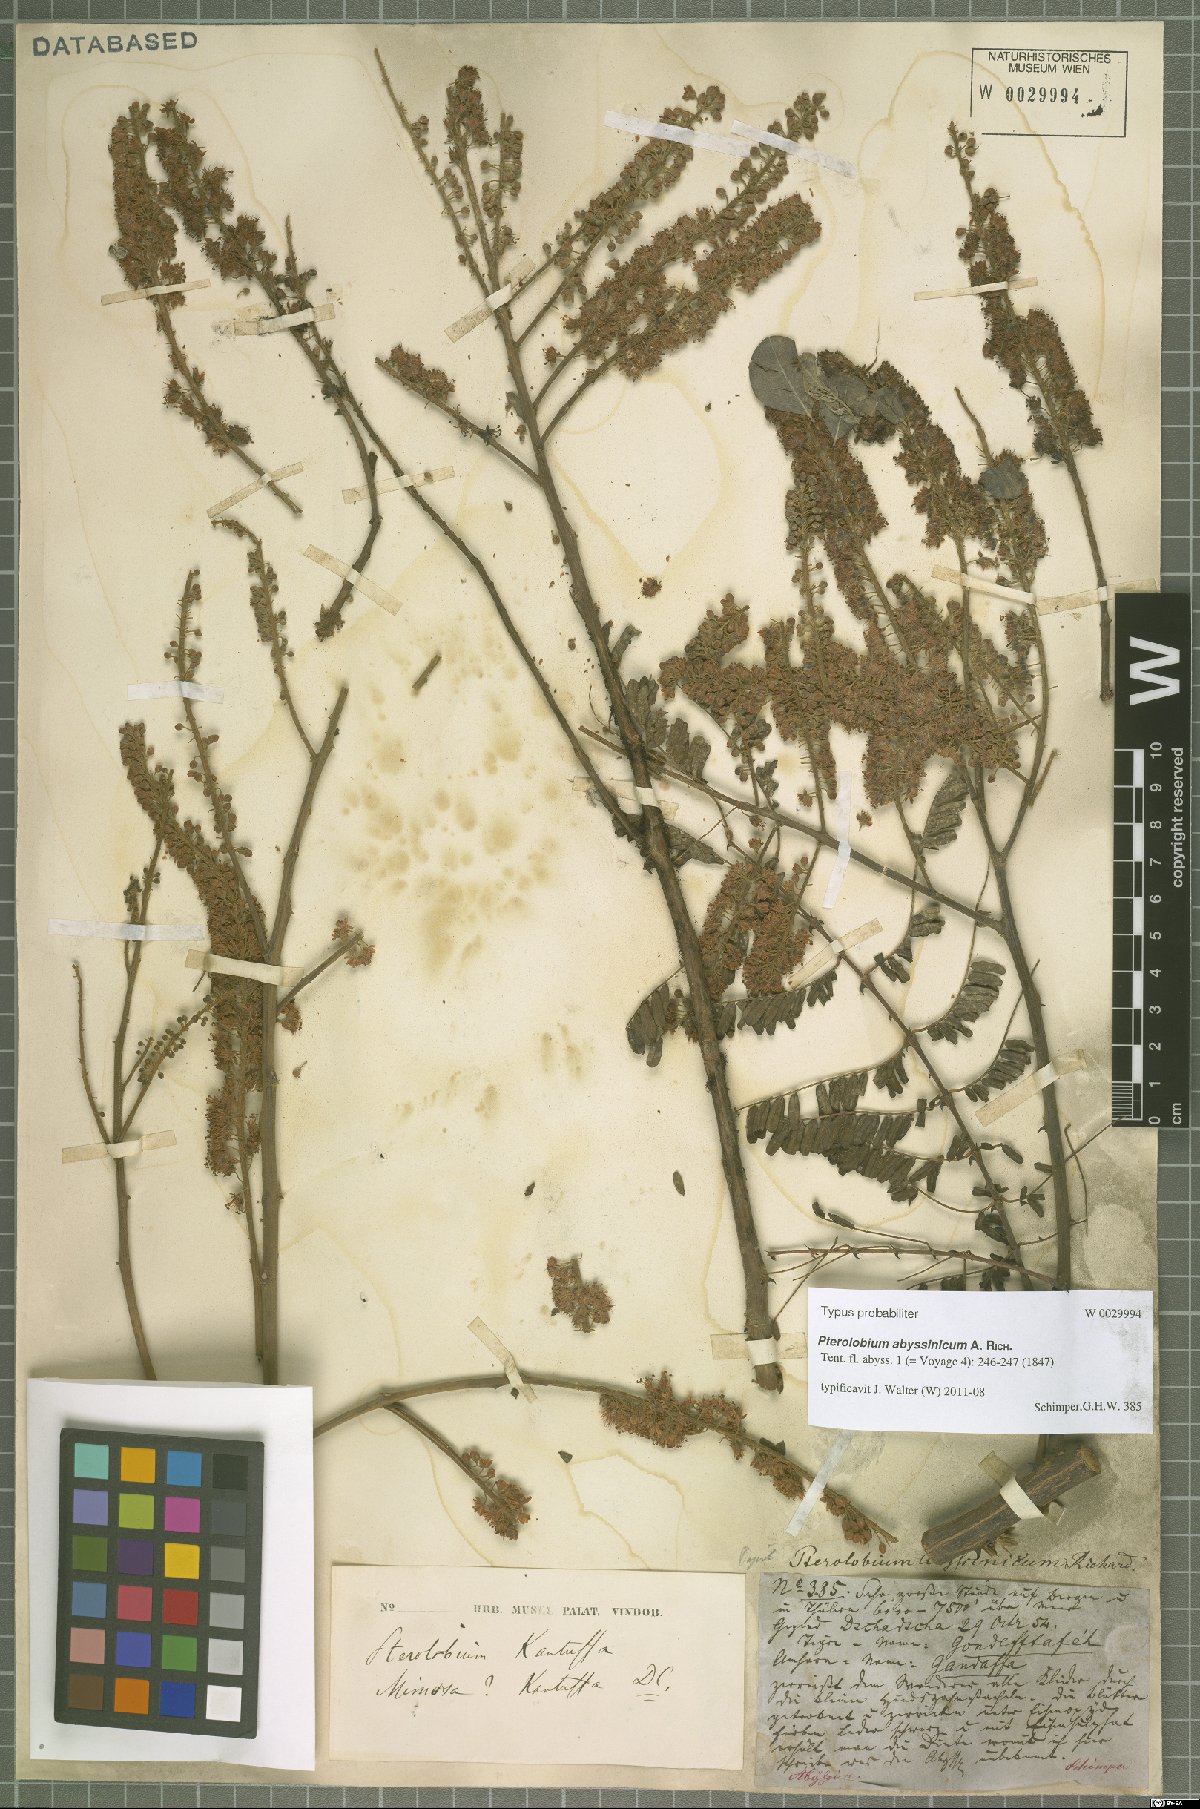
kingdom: Plantae
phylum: Tracheophyta
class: Magnoliopsida
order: Fabales
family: Fabaceae
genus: Pterolobium
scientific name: Pterolobium stellatum
